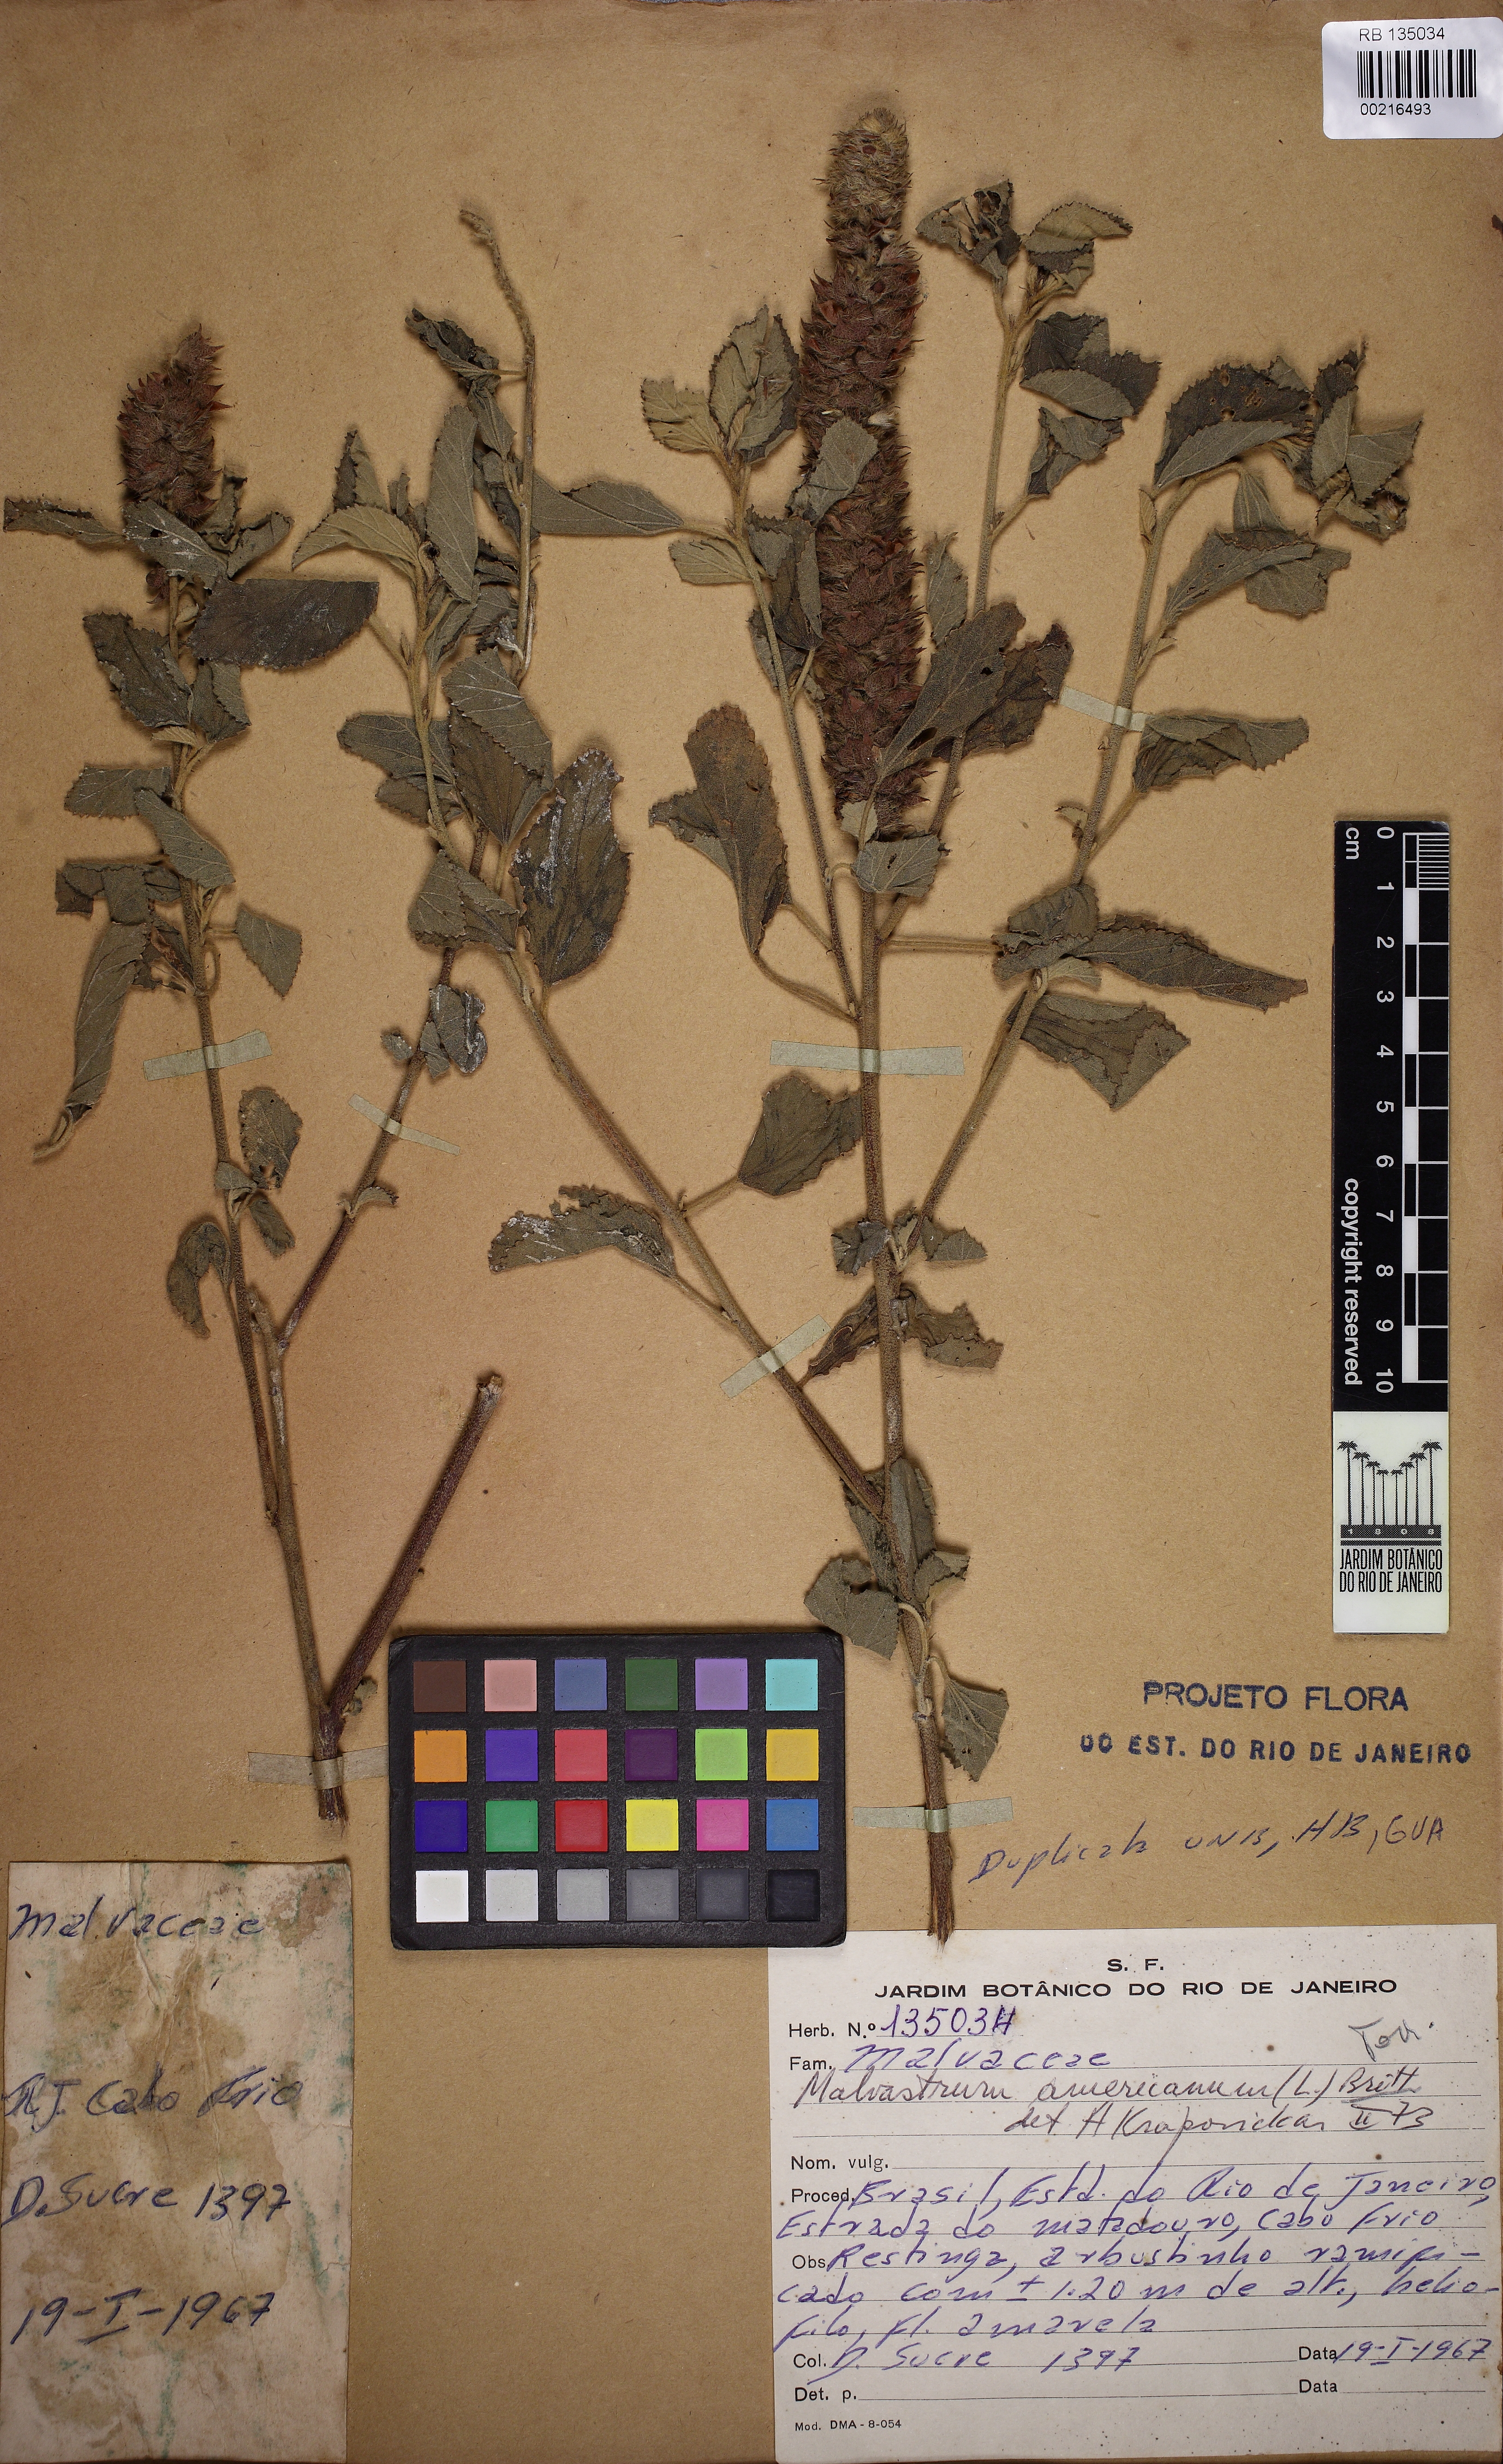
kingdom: Plantae
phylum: Tracheophyta
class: Magnoliopsida
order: Malvales
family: Malvaceae
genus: Malvastrum
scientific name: Malvastrum americanum
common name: Spiked malvastrum
